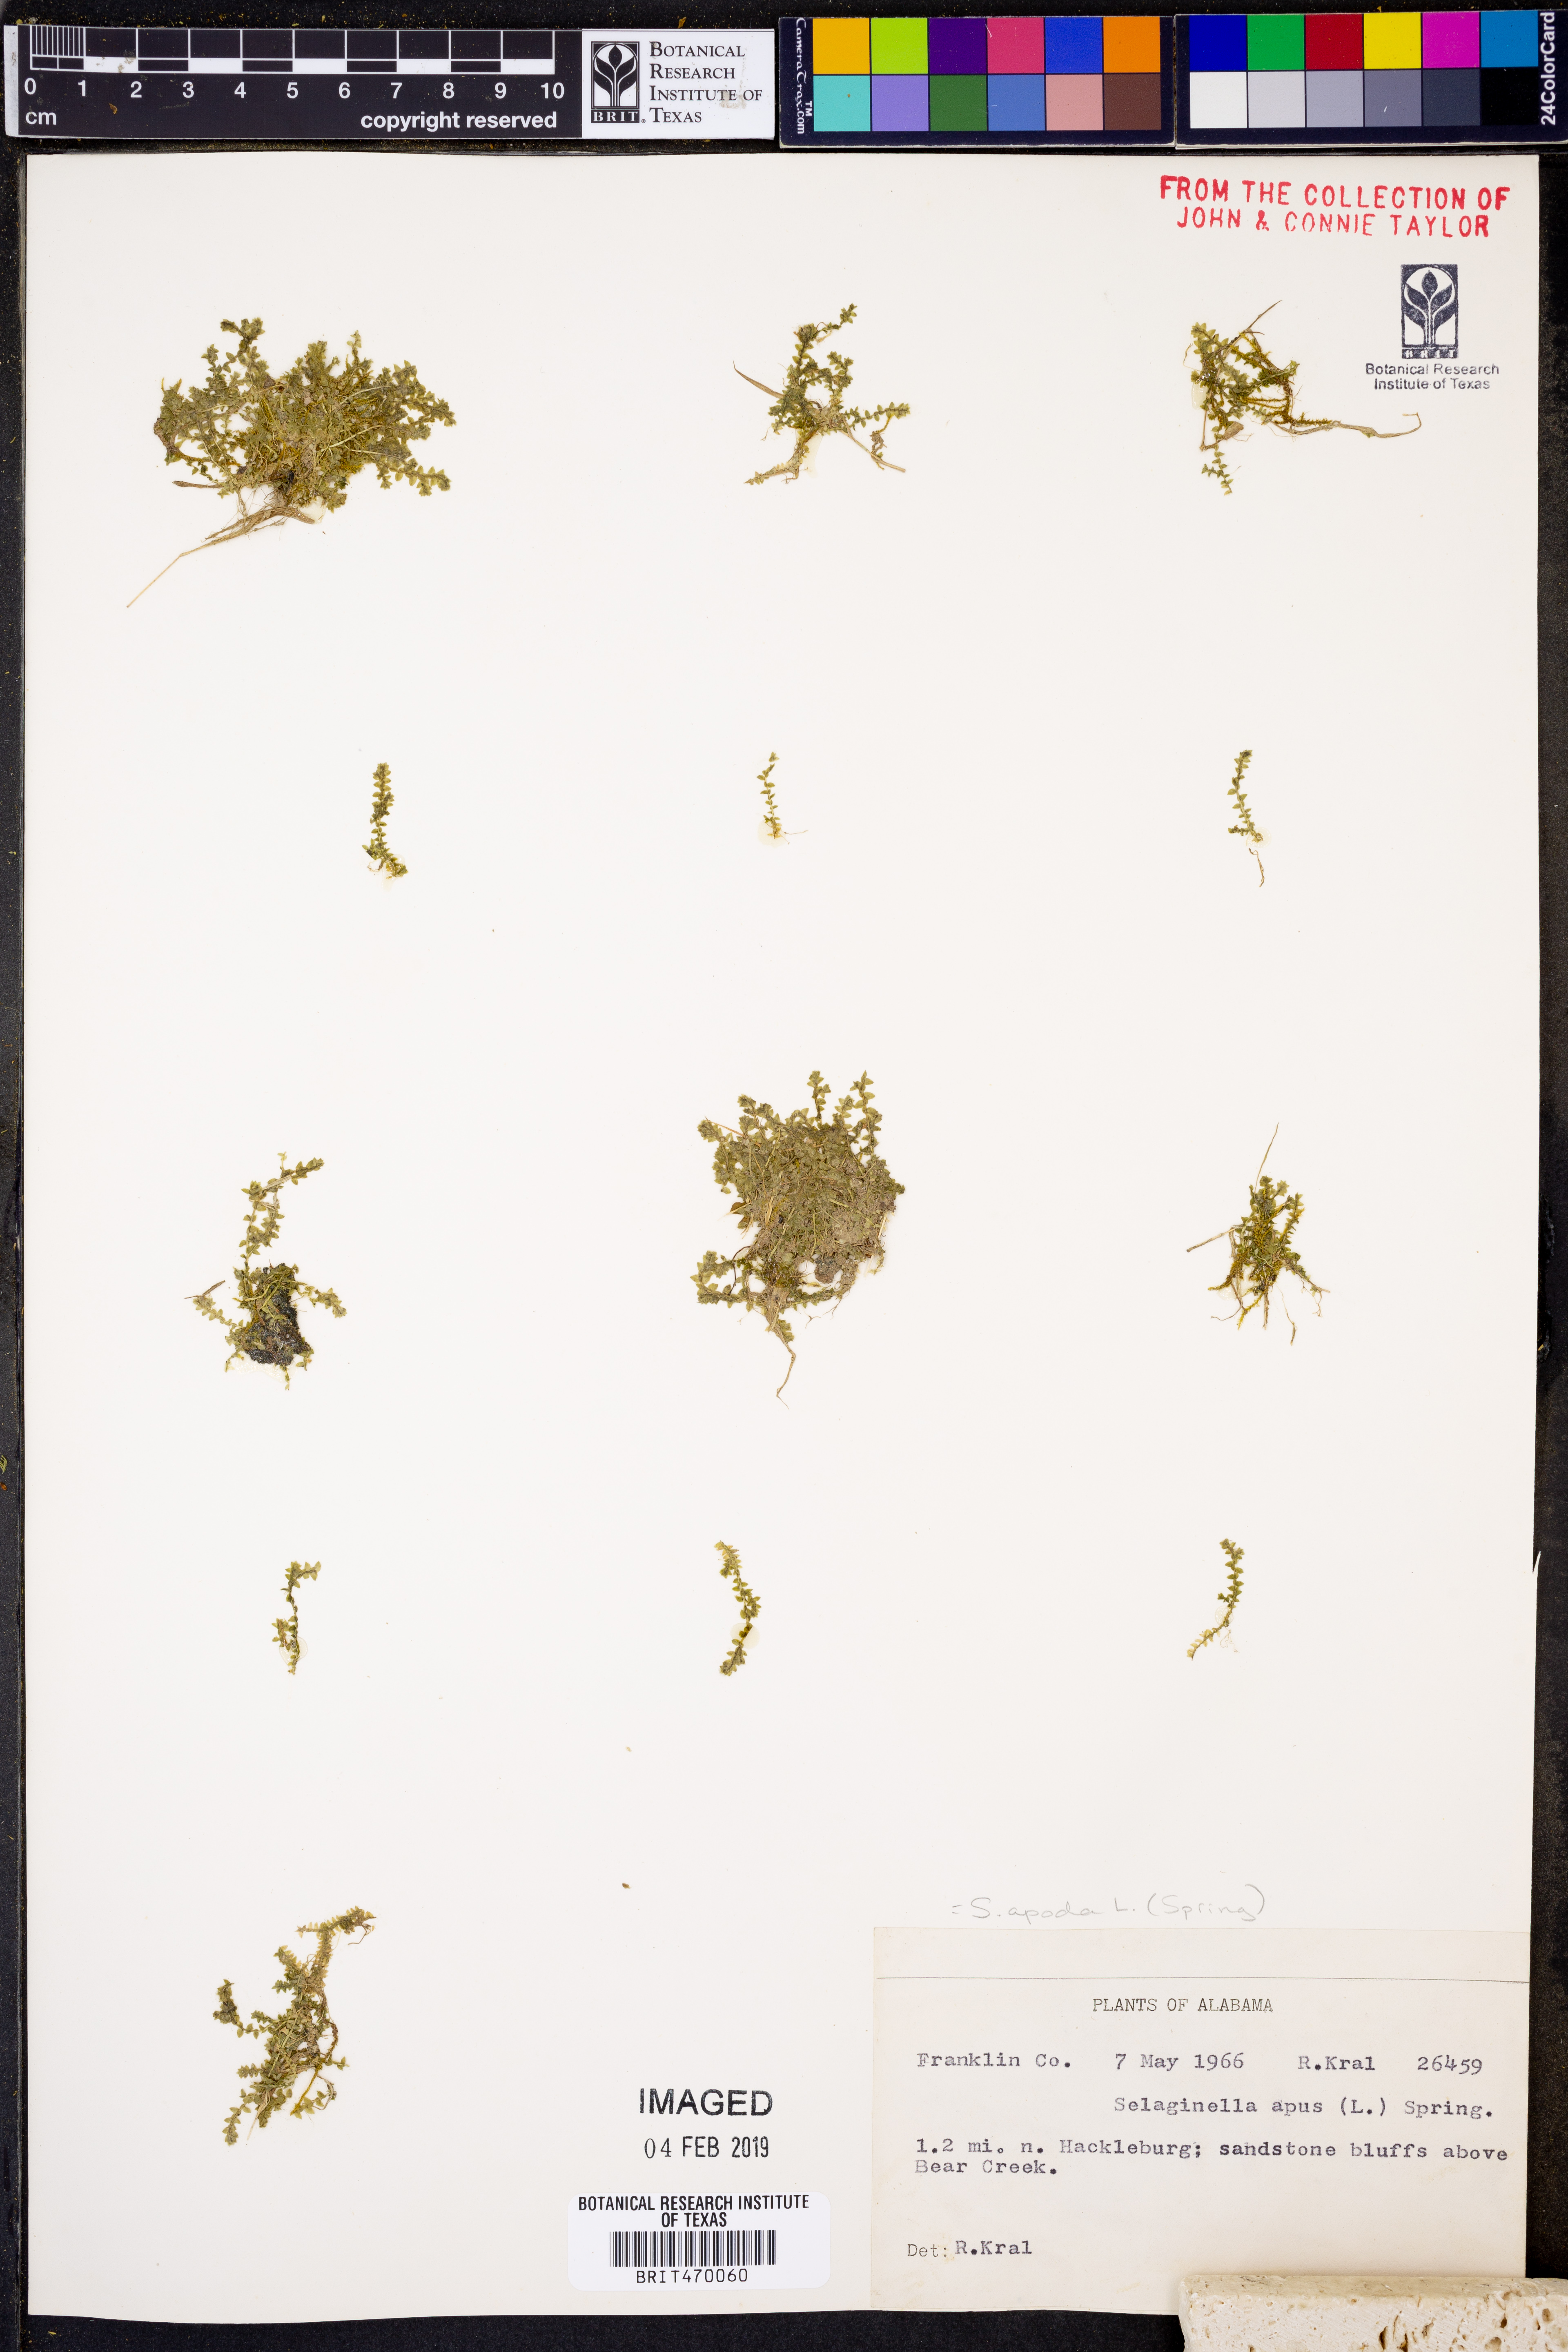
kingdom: Plantae
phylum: Tracheophyta
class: Lycopodiopsida
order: Selaginellales
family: Selaginellaceae
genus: Selaginella
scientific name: Selaginella apoda
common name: Creeping spikemoss
